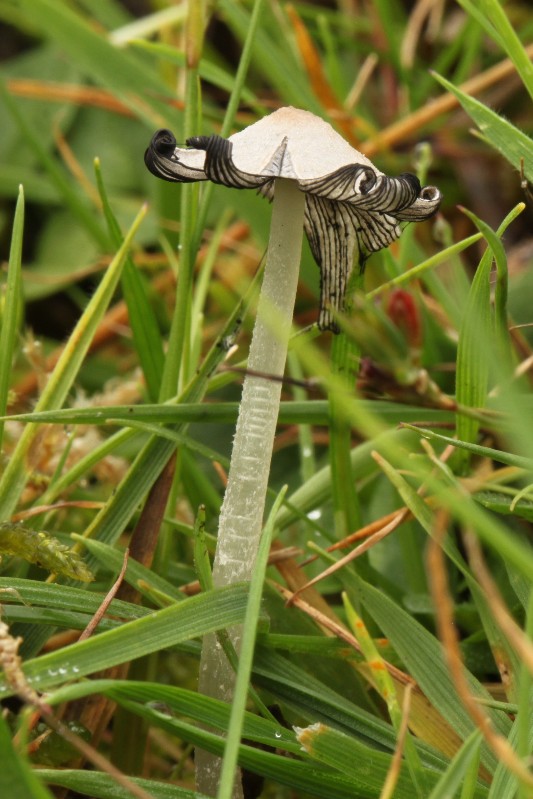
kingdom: Fungi
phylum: Basidiomycota
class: Agaricomycetes
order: Agaricales
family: Psathyrellaceae
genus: Coprinopsis
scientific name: Coprinopsis
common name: blækhat
